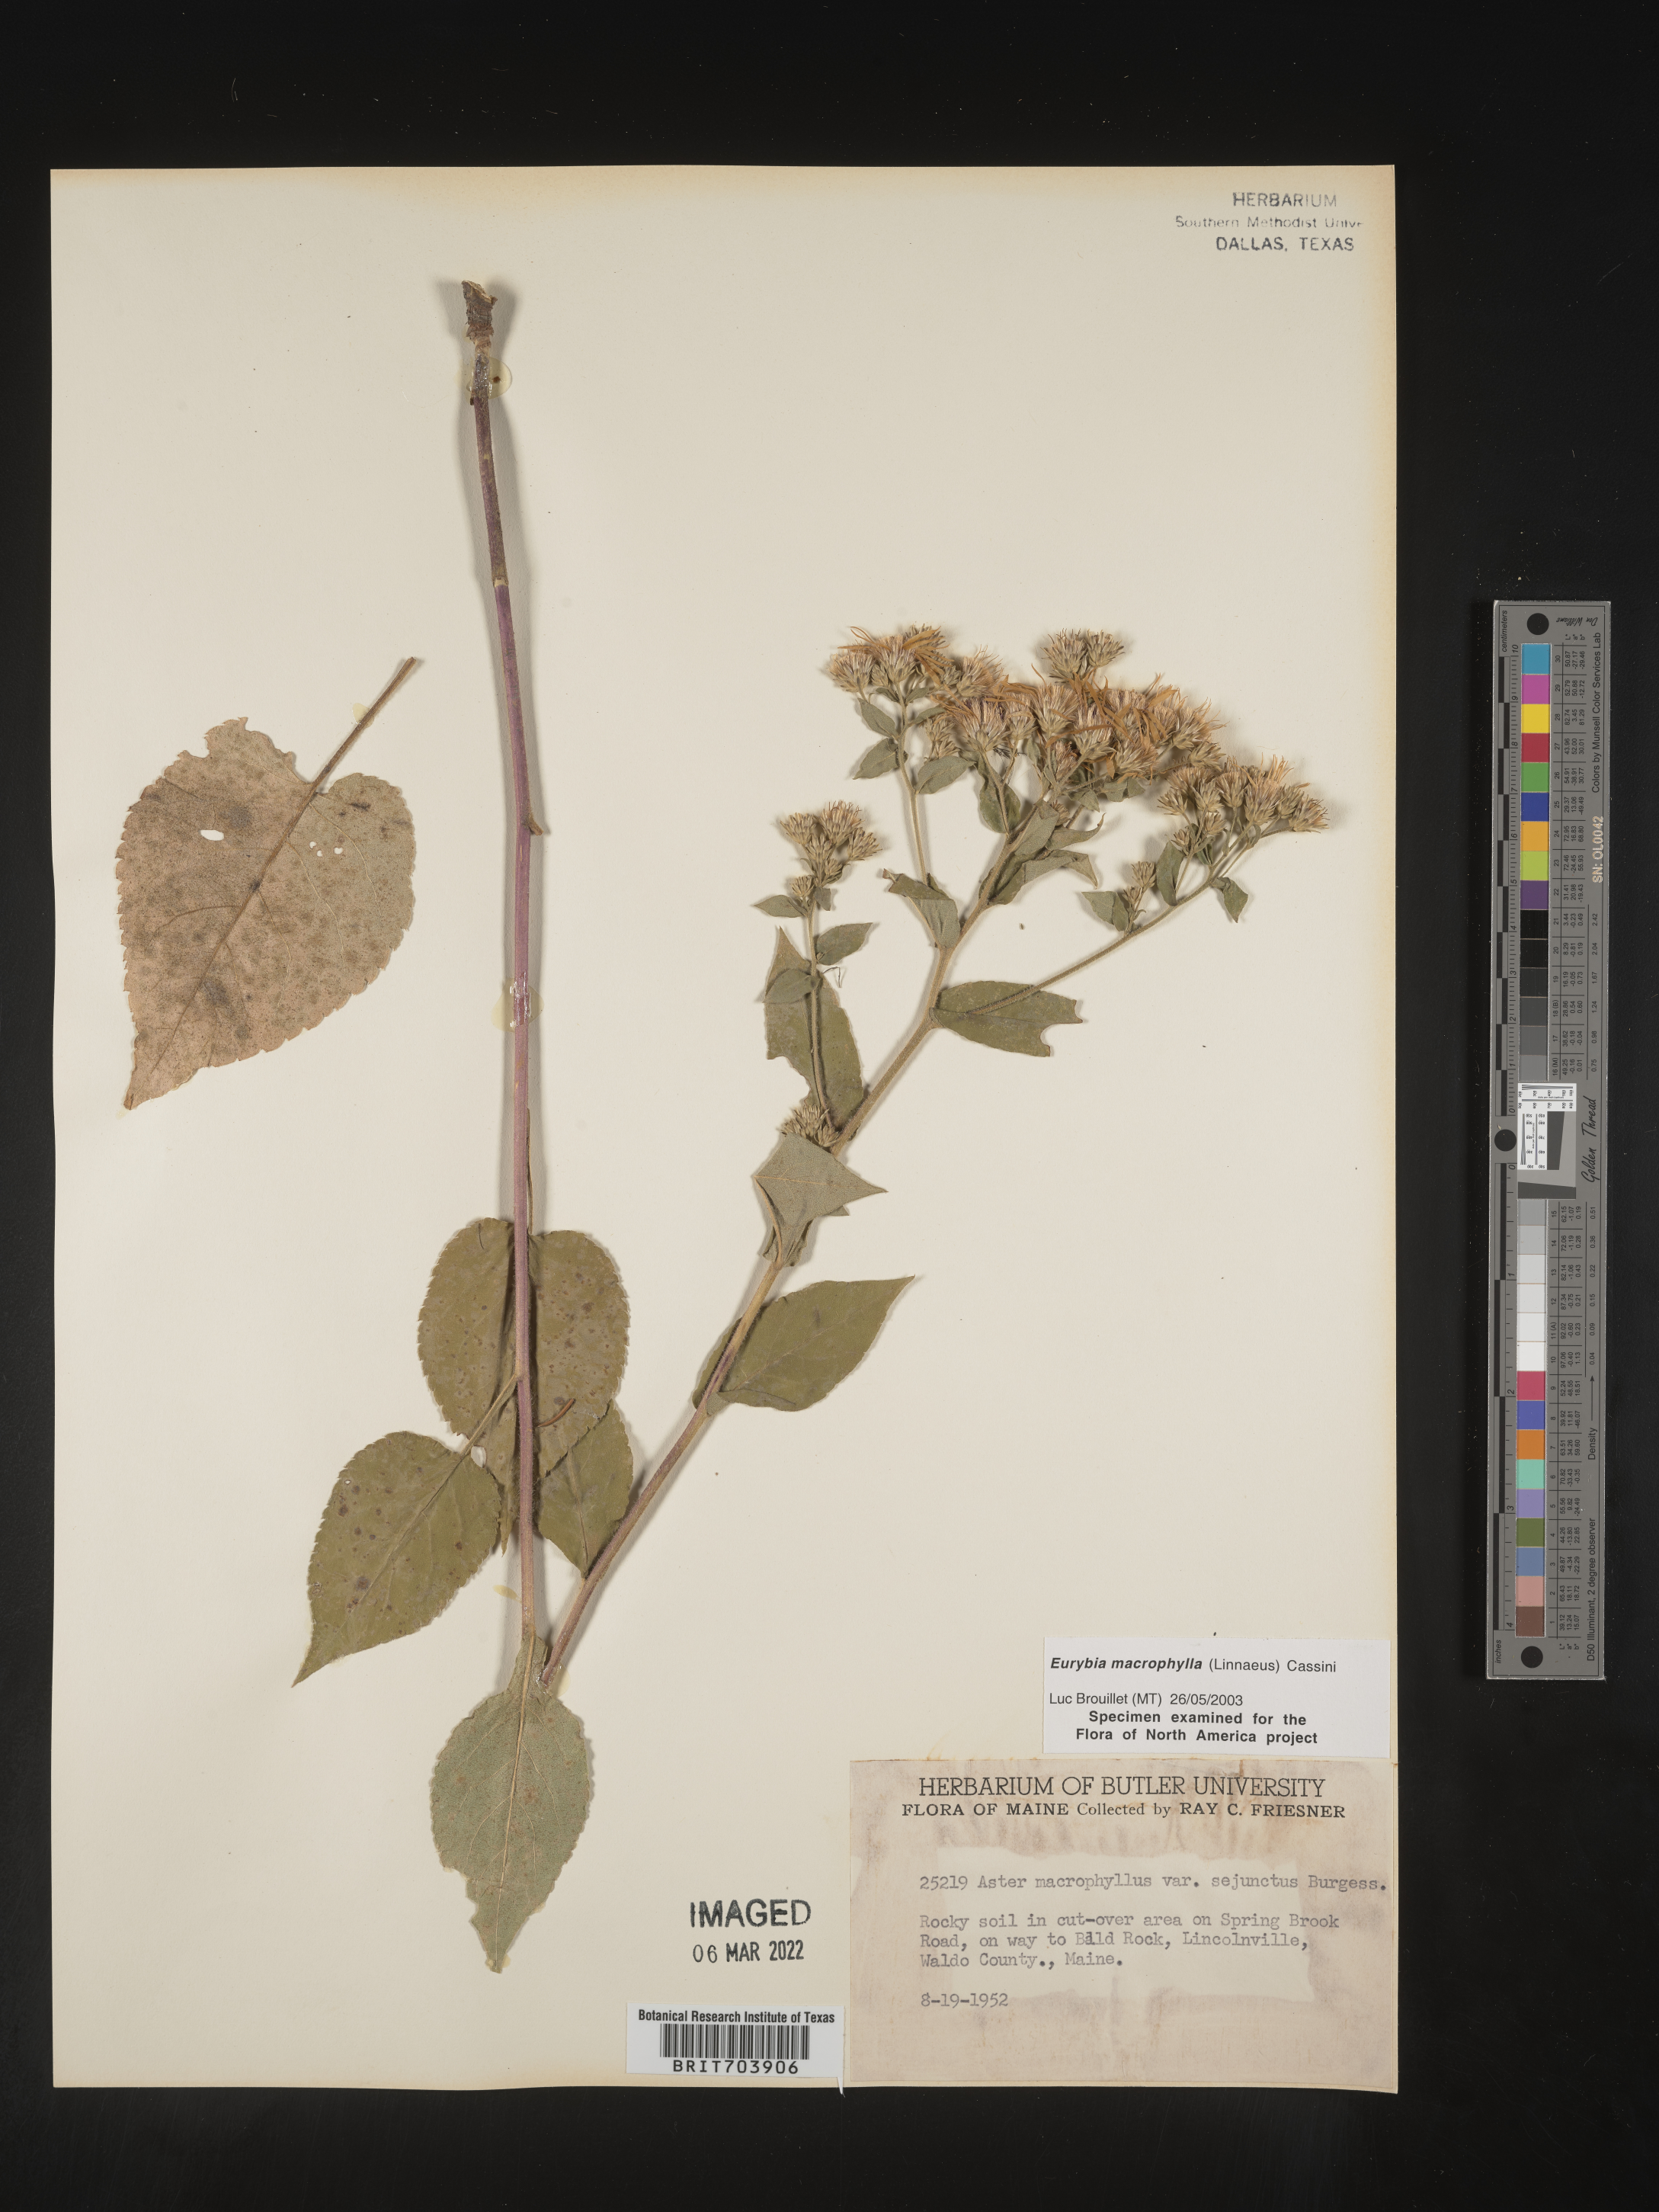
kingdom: Plantae
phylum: Tracheophyta
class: Magnoliopsida
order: Asterales
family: Asteraceae
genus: Eurybia
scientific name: Eurybia macrophylla
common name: Big-leaved aster
